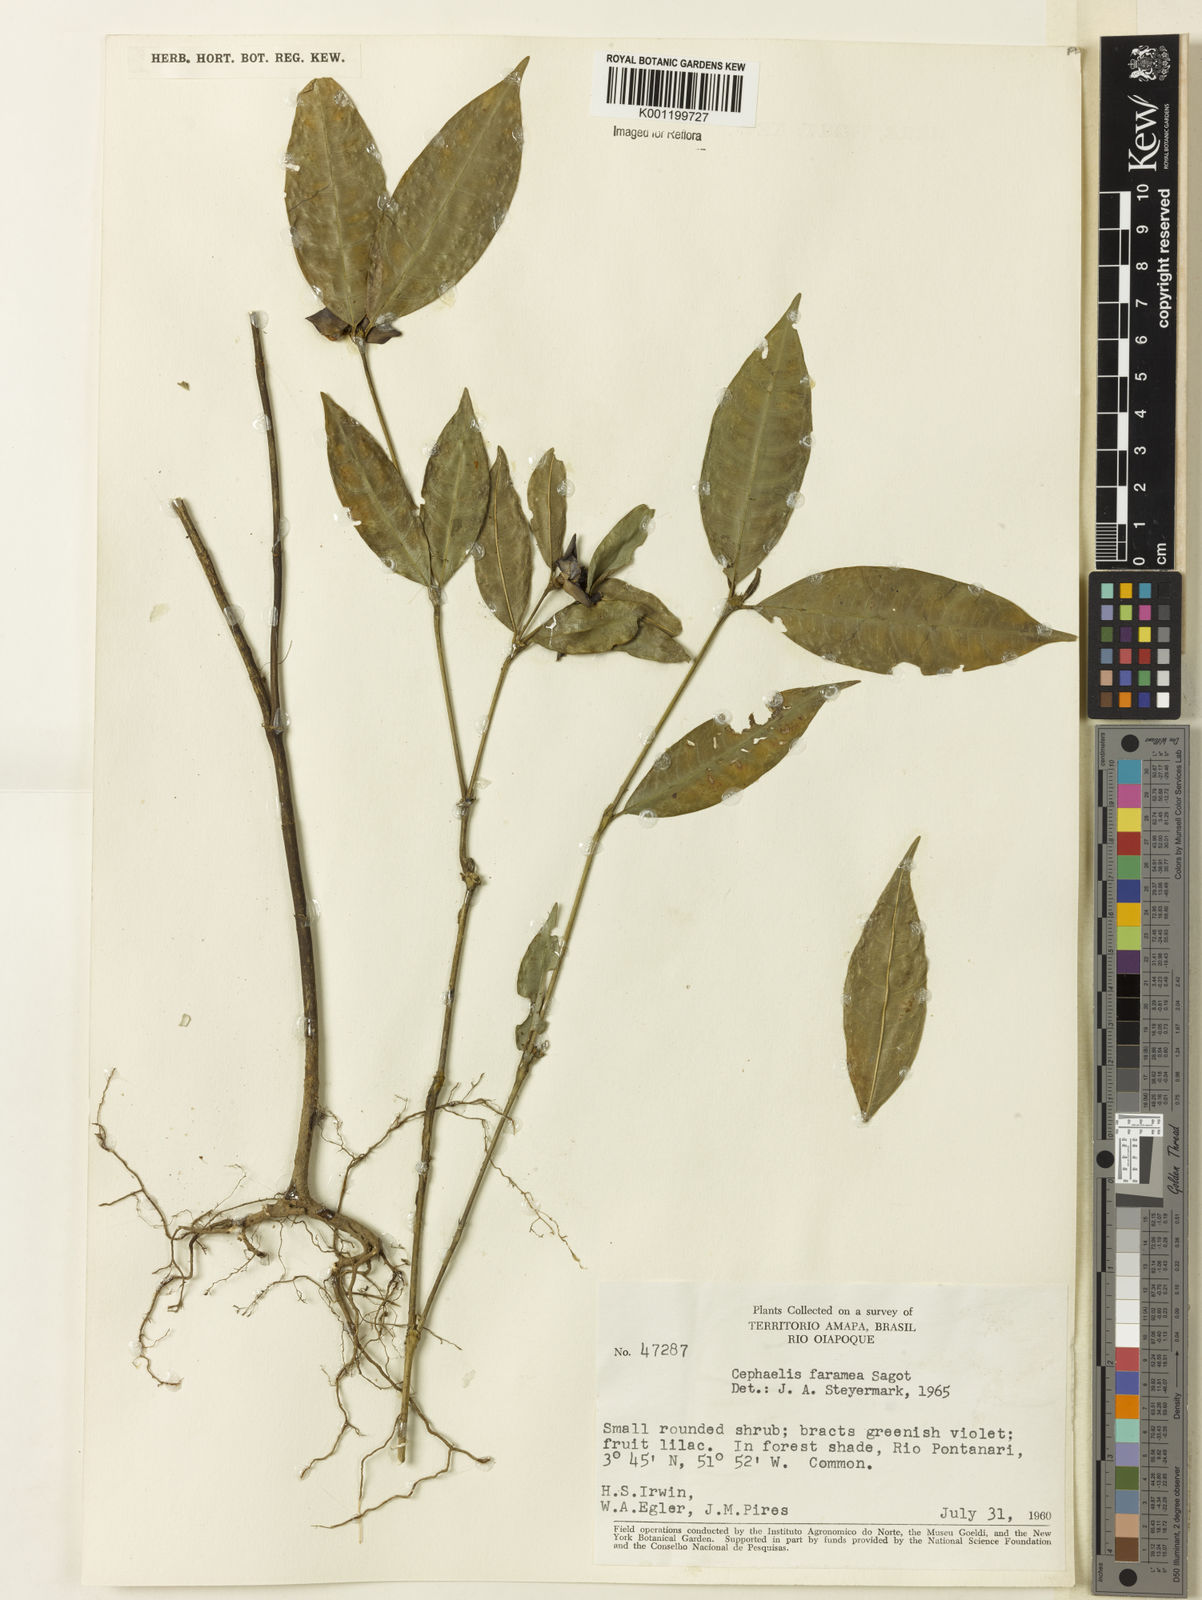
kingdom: Plantae
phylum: Tracheophyta
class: Magnoliopsida
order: Gentianales
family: Rubiaceae
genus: Palicourea
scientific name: Palicourea oblonga
